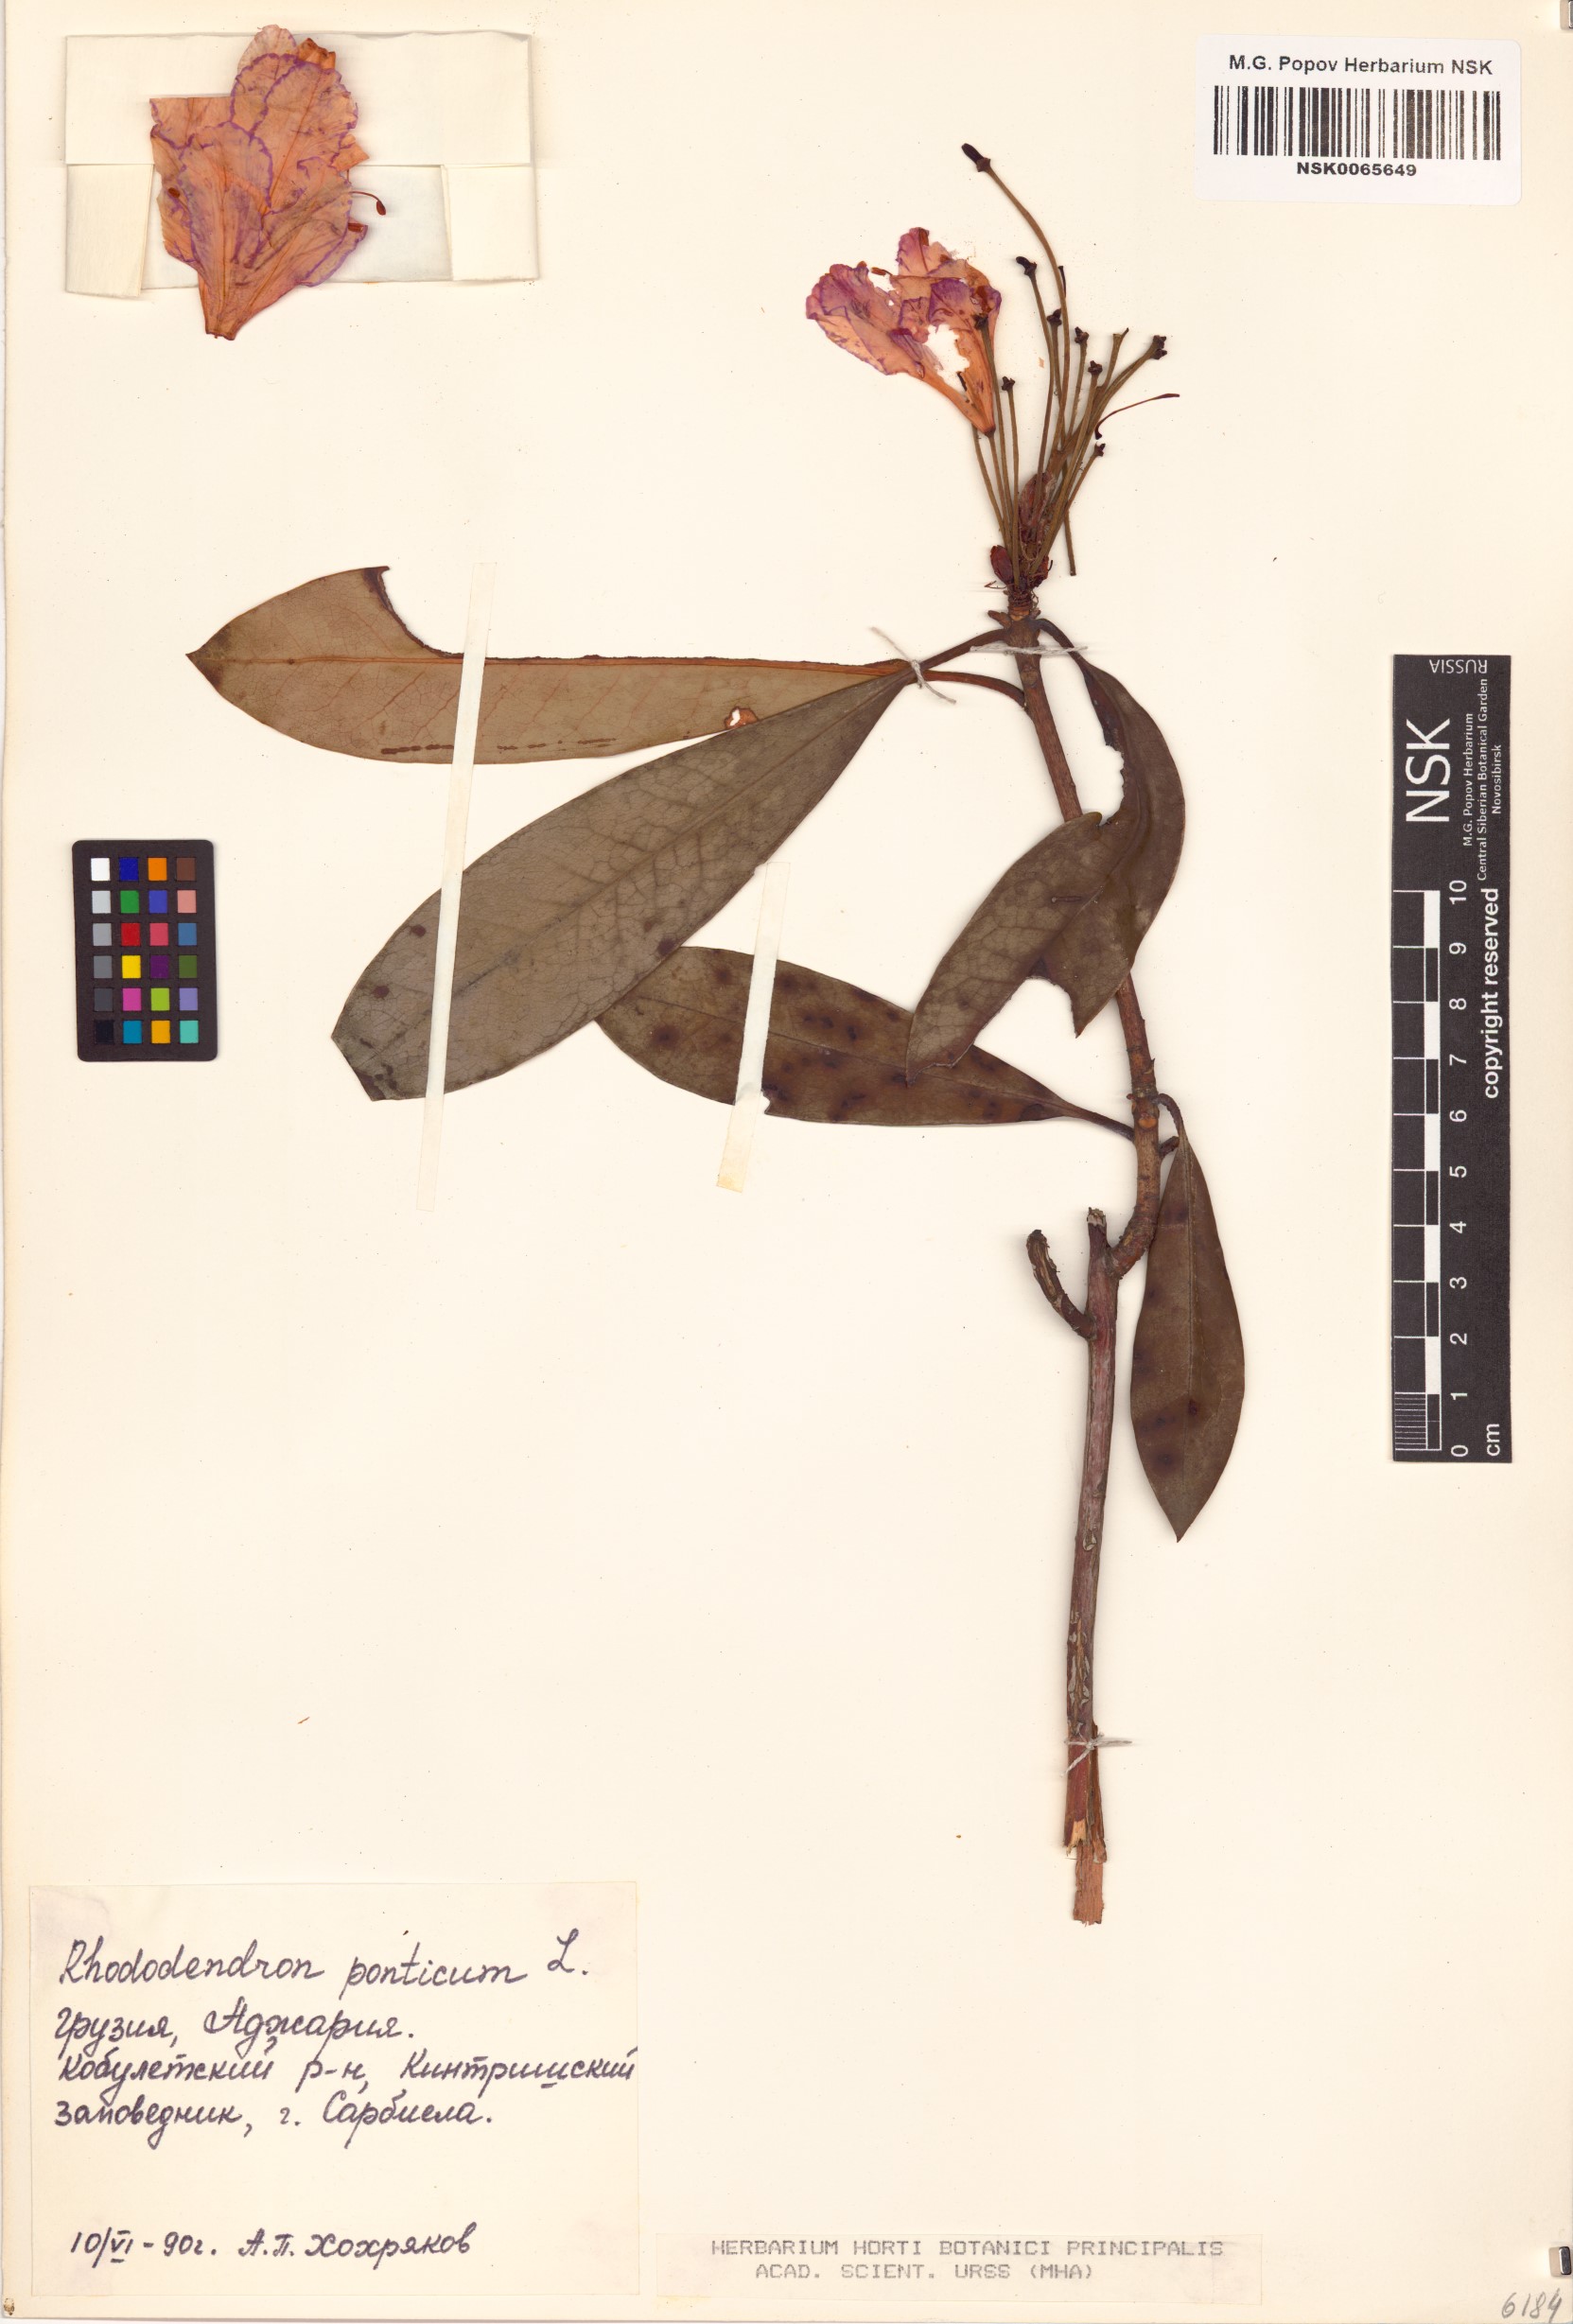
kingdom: Plantae
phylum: Tracheophyta
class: Magnoliopsida
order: Ericales
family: Ericaceae
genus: Rhododendron
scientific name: Rhododendron ponticum
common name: Rhododendron
